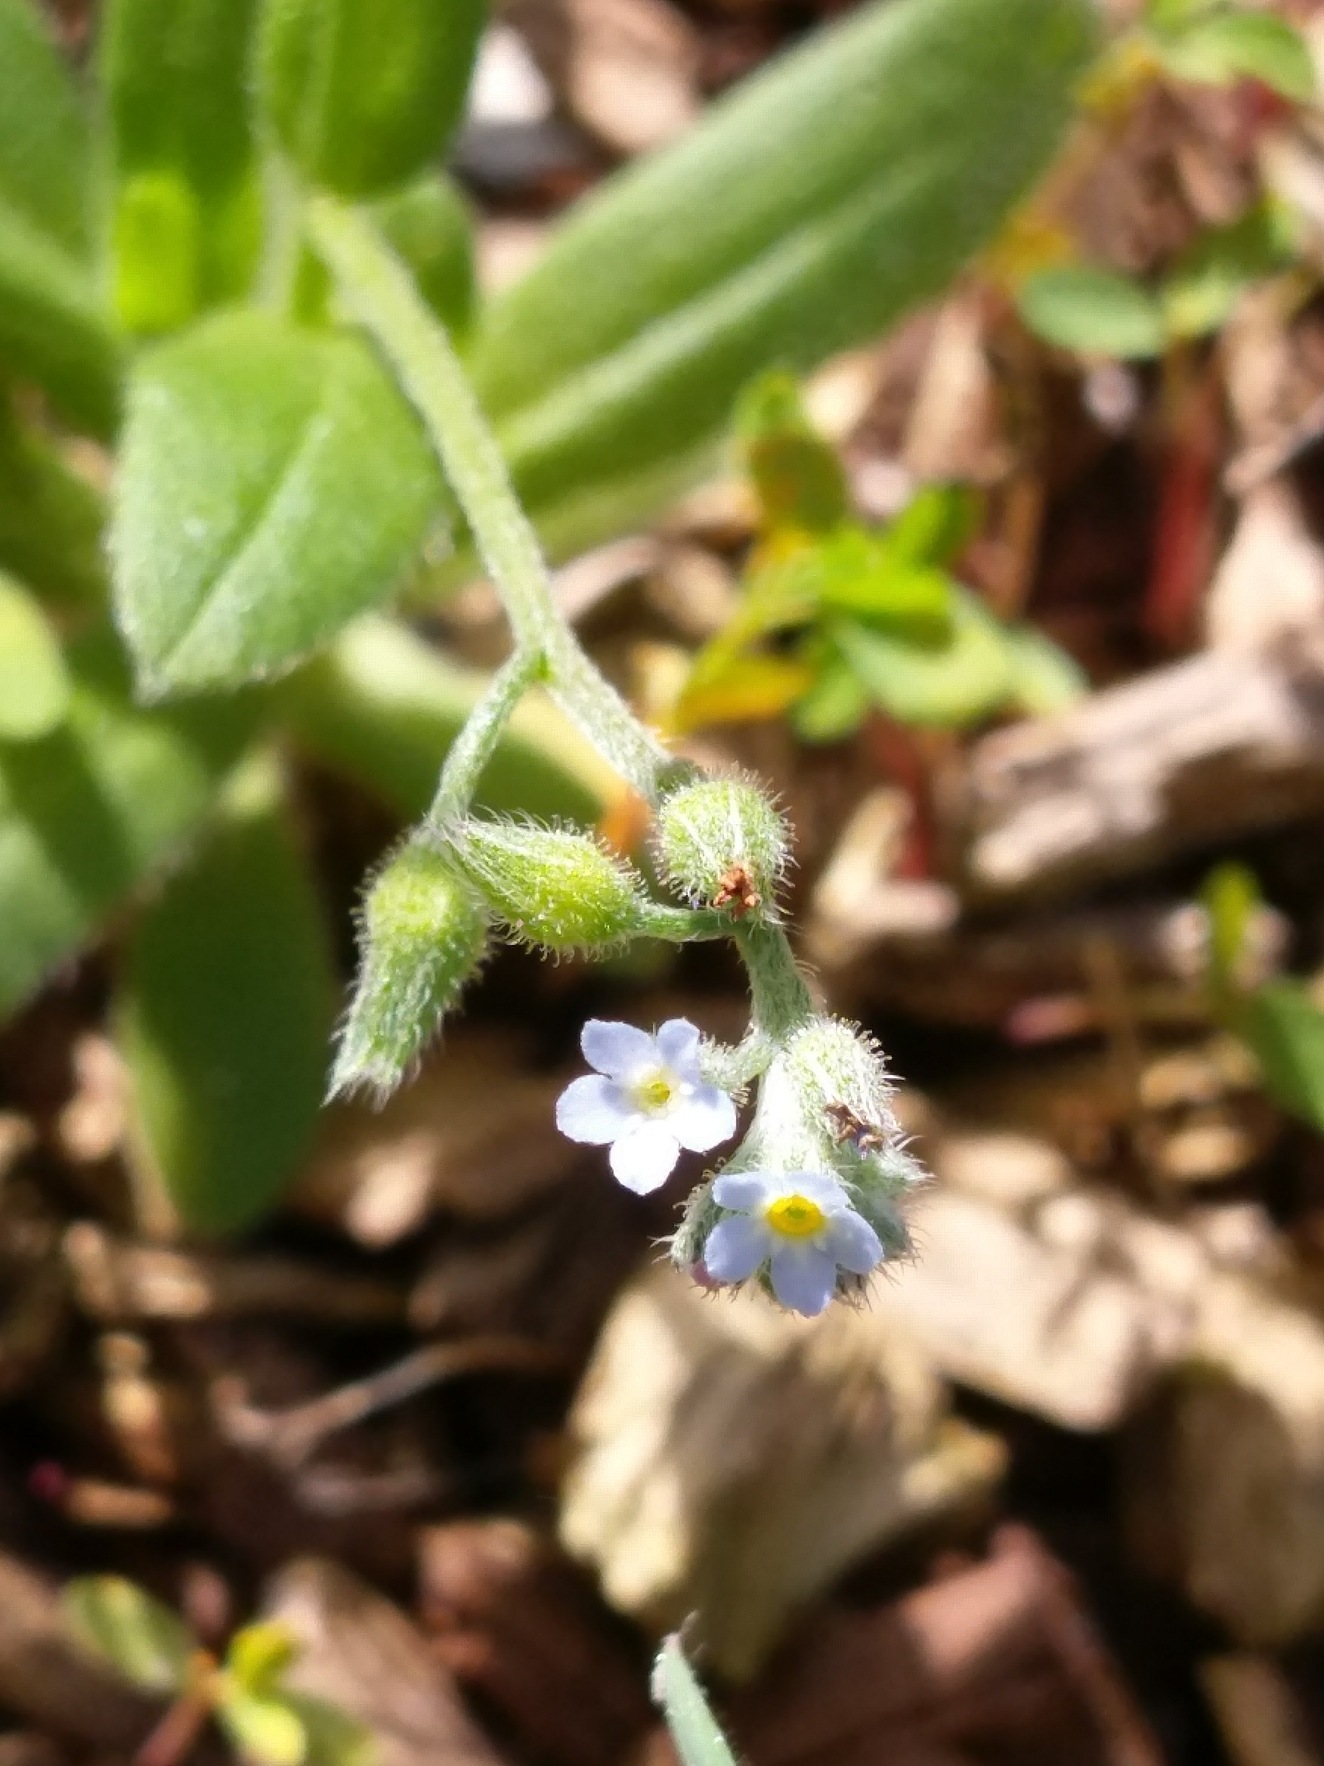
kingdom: Plantae
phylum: Tracheophyta
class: Magnoliopsida
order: Boraginales
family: Boraginaceae
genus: Myosotis
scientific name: Myosotis arvensis
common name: Mark-forglemmigej
